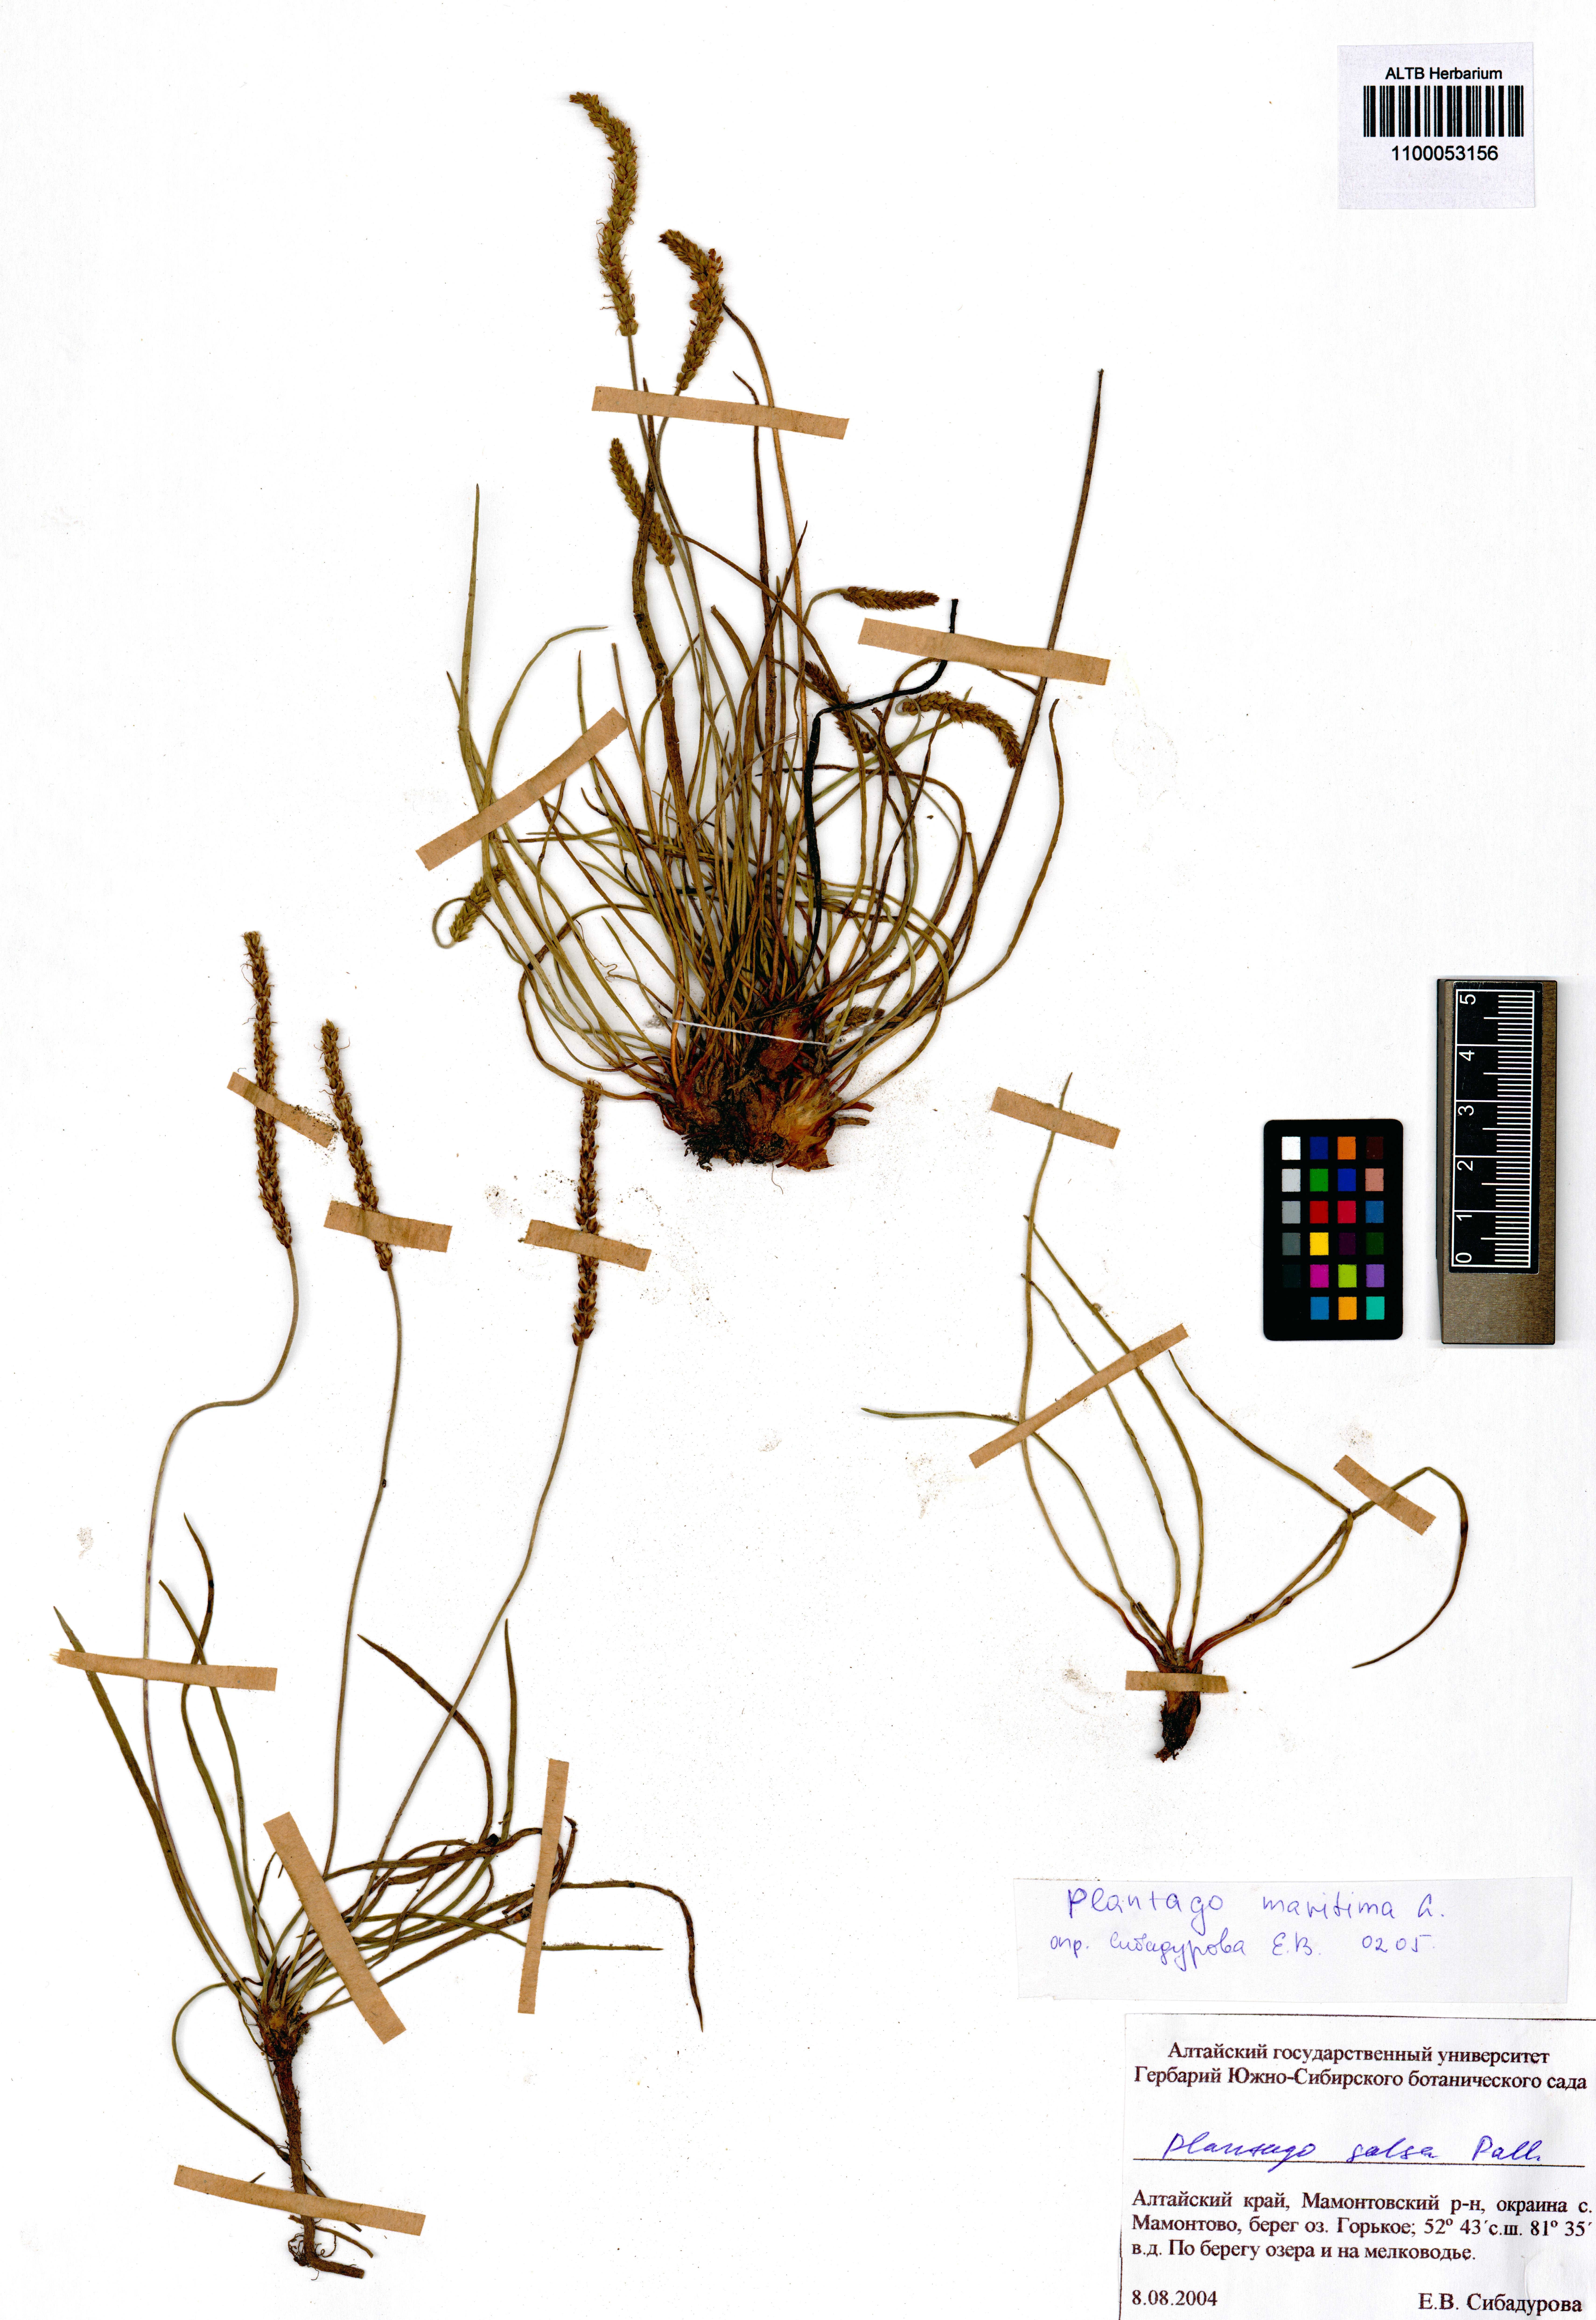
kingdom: Plantae
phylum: Tracheophyta
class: Magnoliopsida
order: Lamiales
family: Plantaginaceae
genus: Plantago
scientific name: Plantago maritima
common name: Sea plantain
